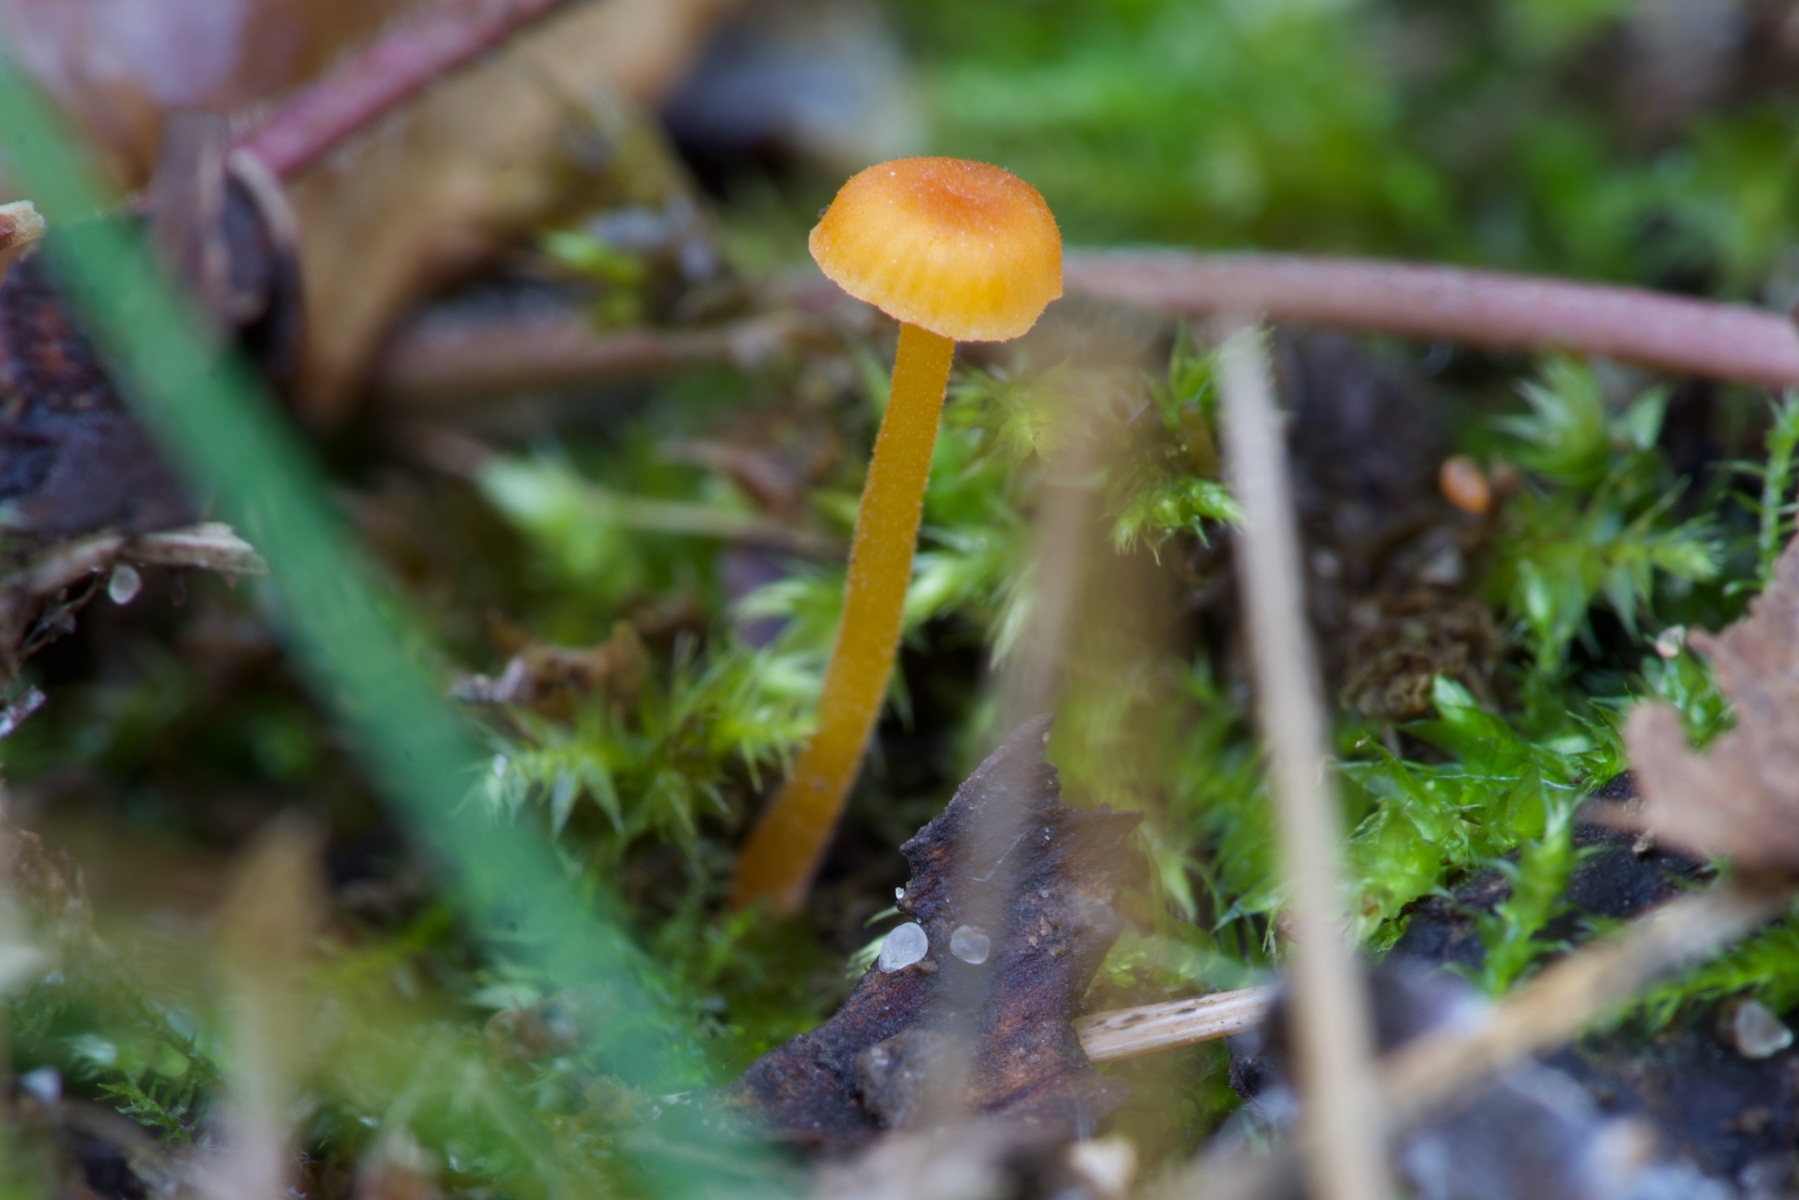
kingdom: Fungi
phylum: Basidiomycota
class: Agaricomycetes
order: Hymenochaetales
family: Rickenellaceae
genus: Rickenella
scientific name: Rickenella fibula
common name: orange mosnavlehat
